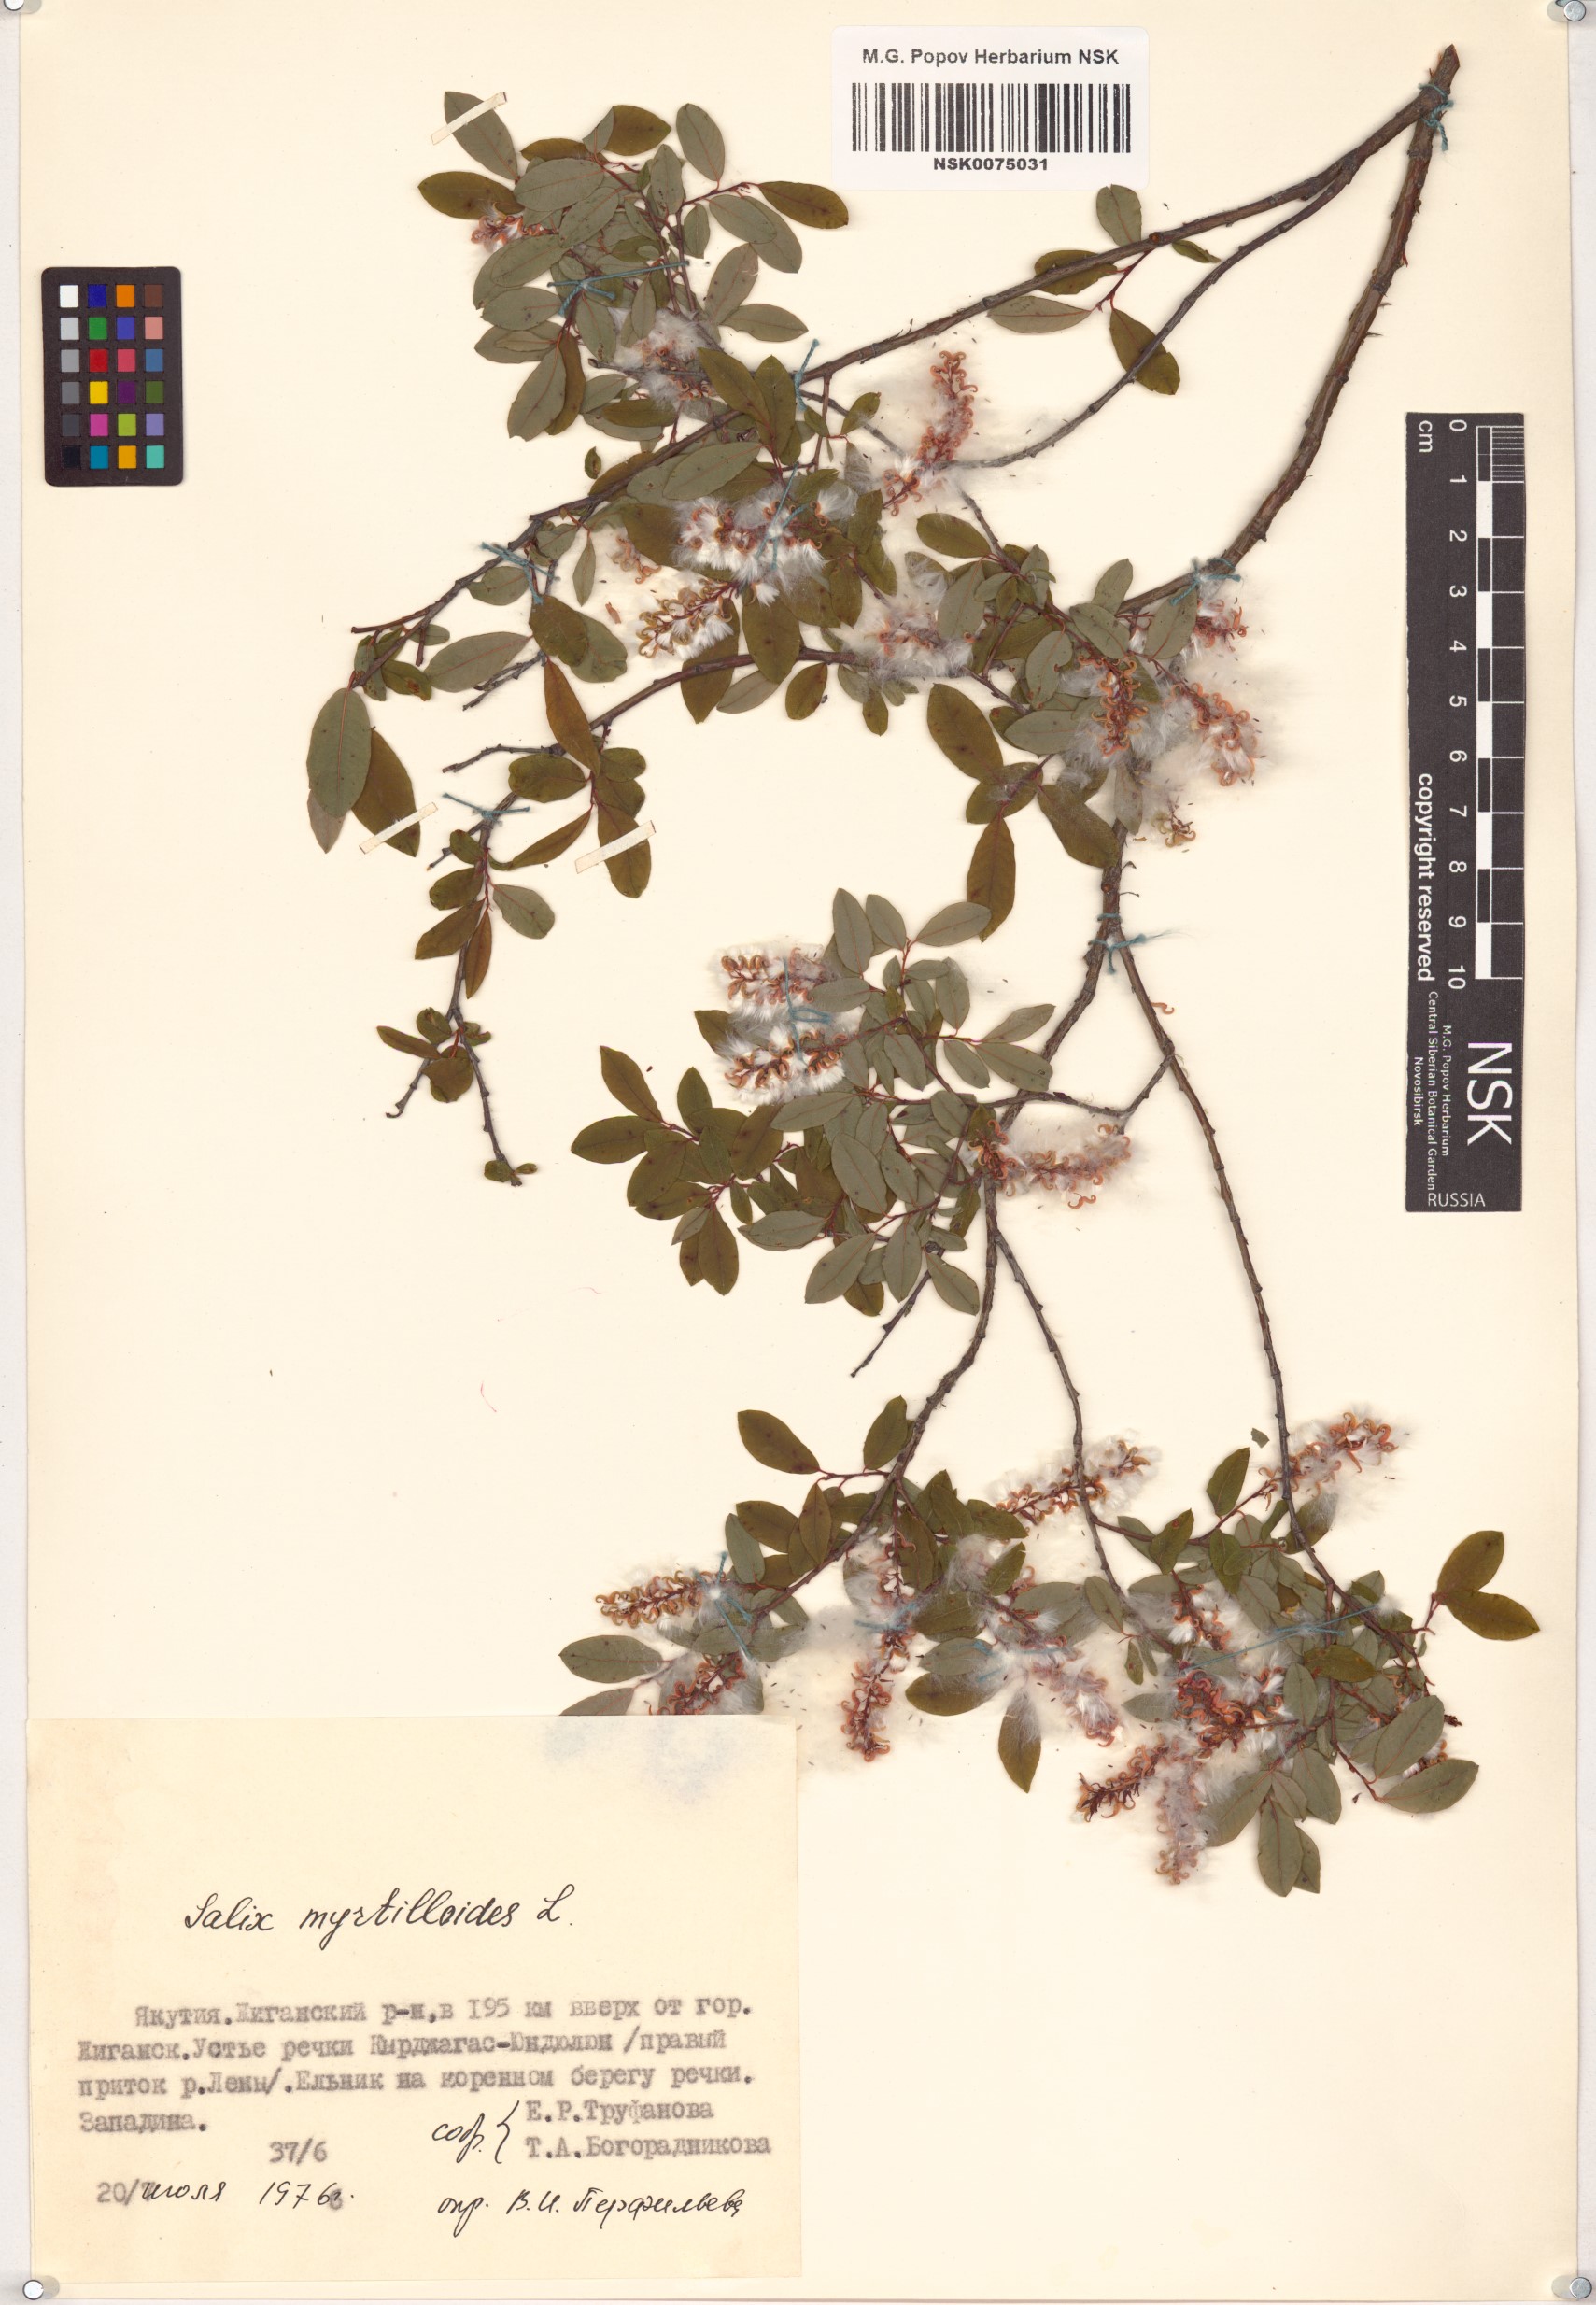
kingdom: Plantae
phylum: Tracheophyta
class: Magnoliopsida
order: Malpighiales
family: Salicaceae
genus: Salix
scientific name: Salix myrtilloides
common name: Myrtle-leaved willow
